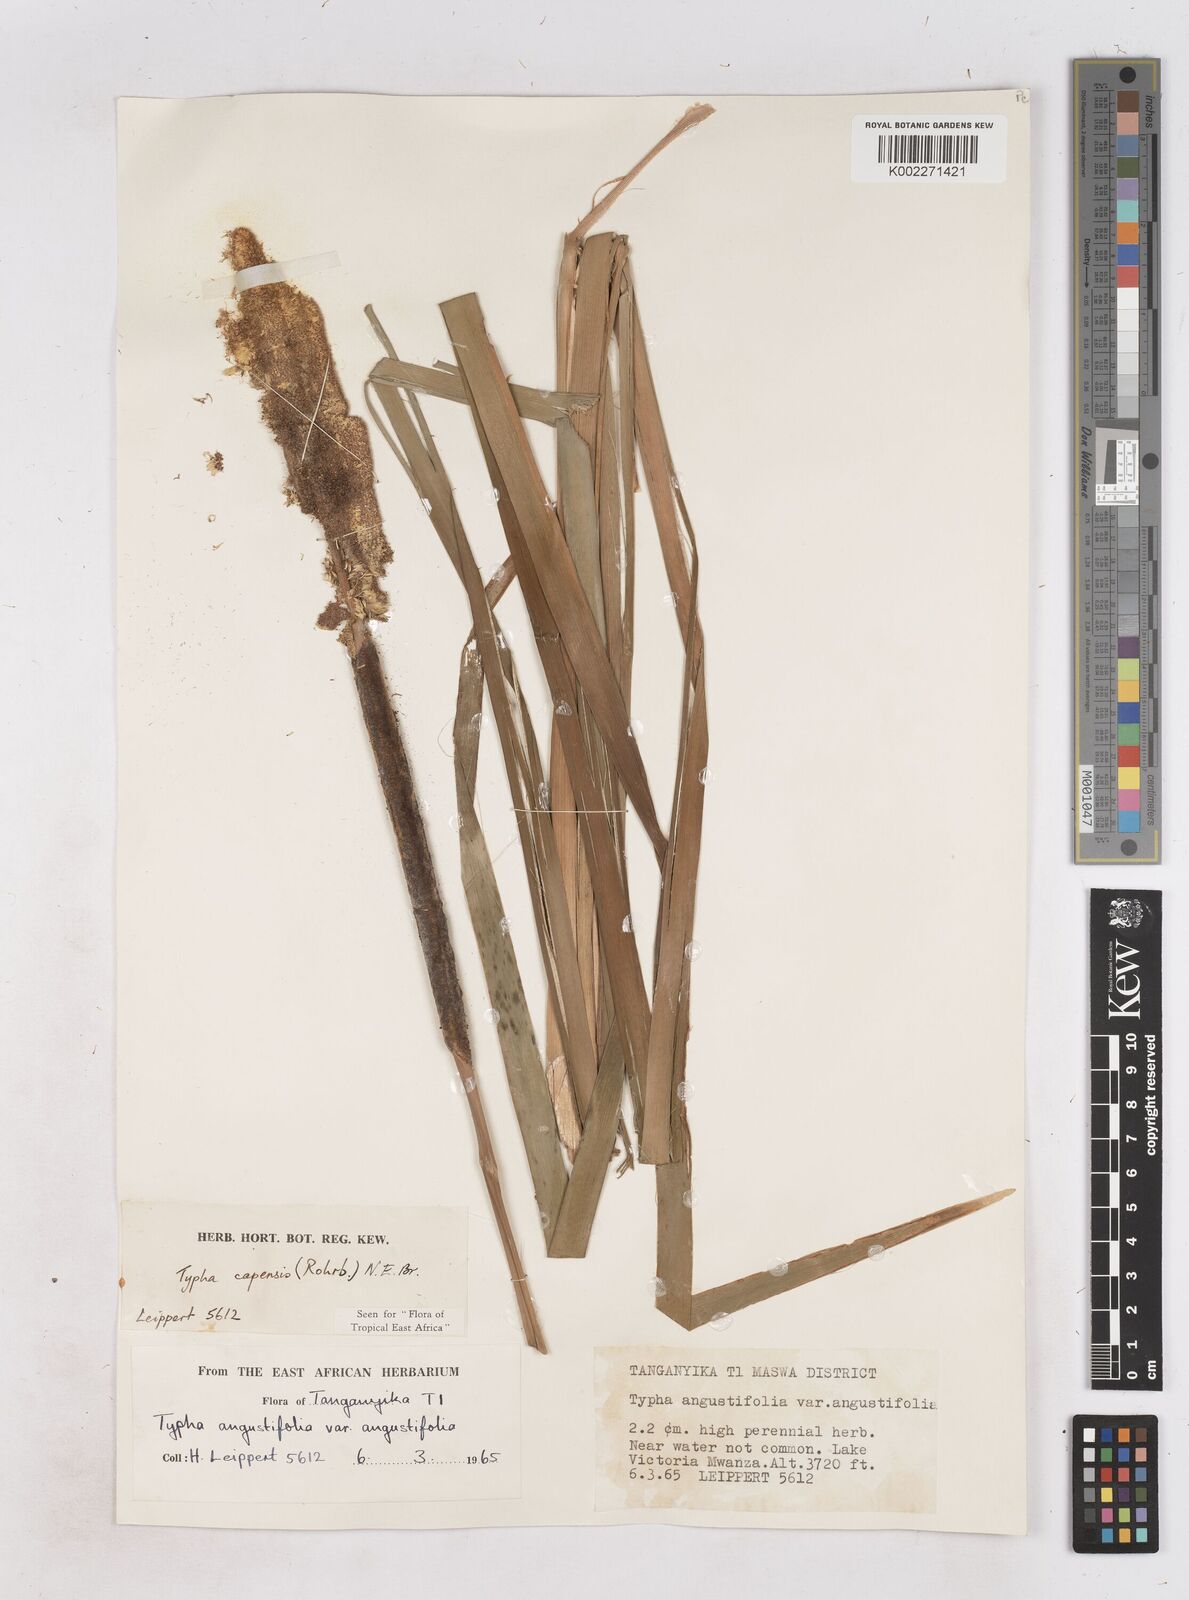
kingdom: Plantae
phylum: Tracheophyta
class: Liliopsida
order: Poales
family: Typhaceae
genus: Typha
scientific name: Typha capensis
